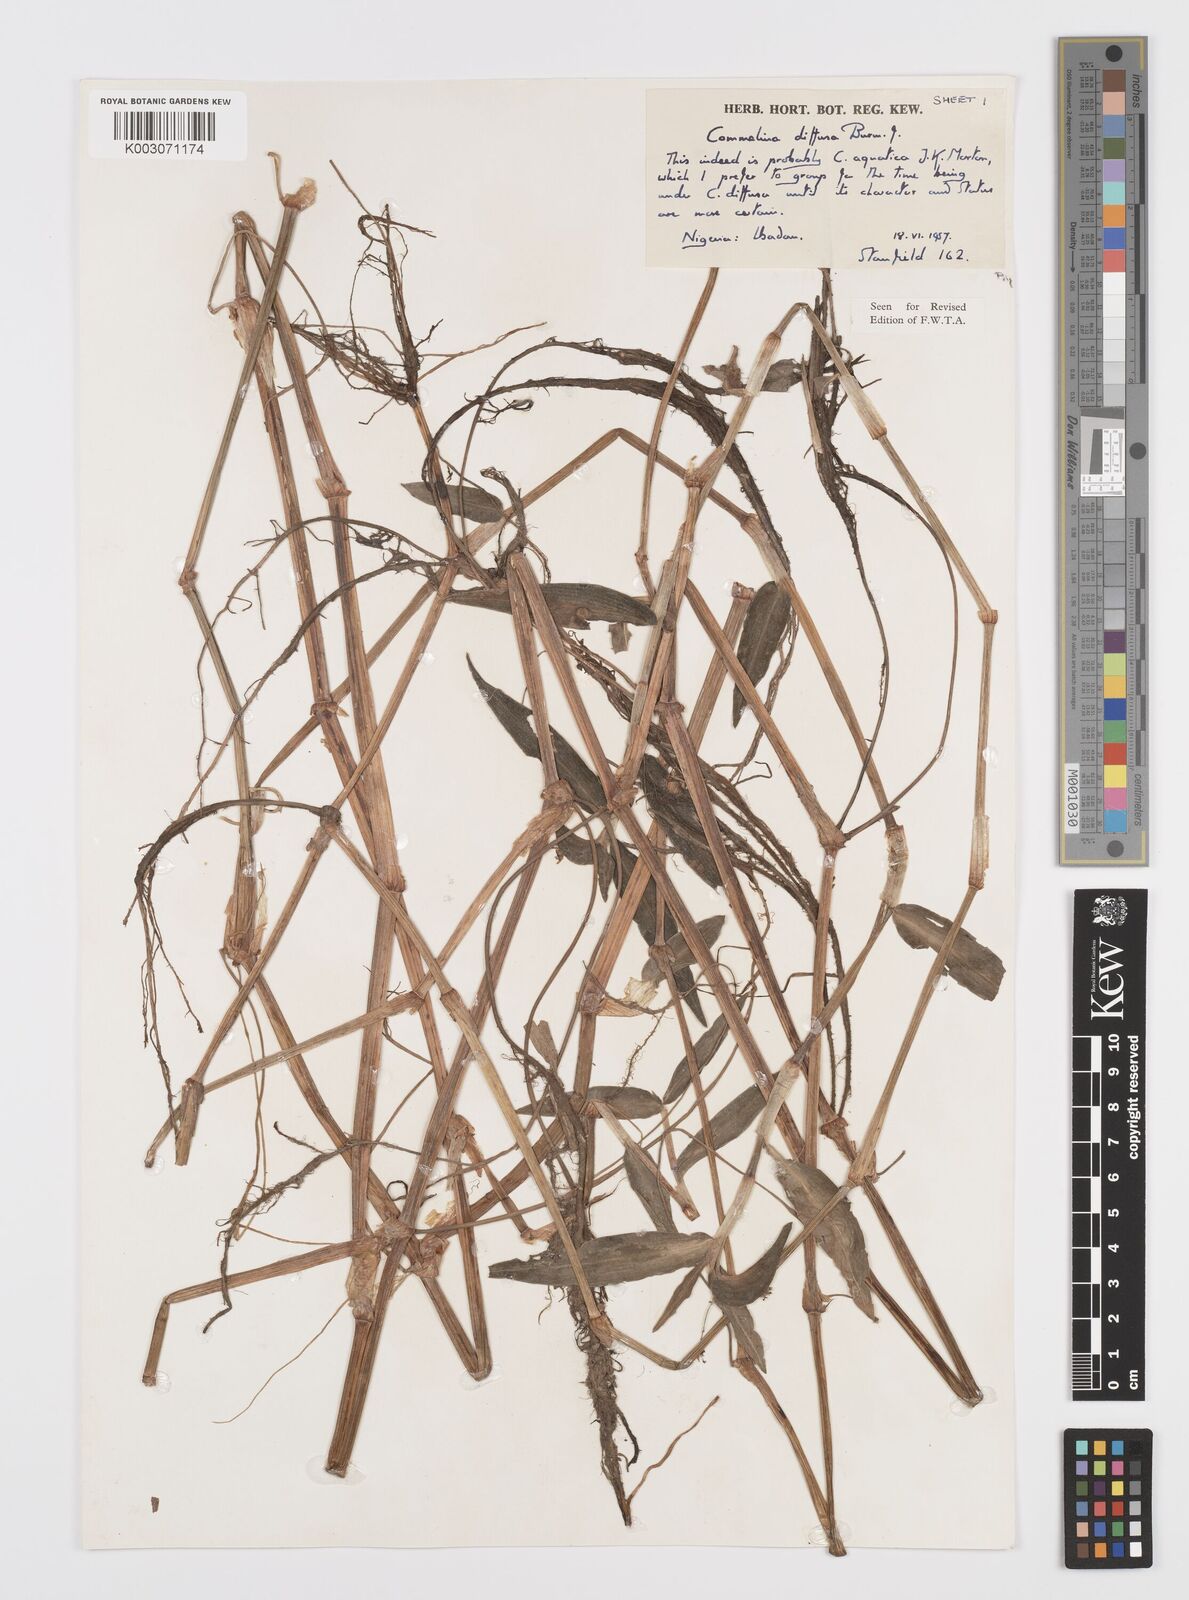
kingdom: Plantae
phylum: Tracheophyta
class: Liliopsida
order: Commelinales
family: Commelinaceae
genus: Commelina
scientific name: Commelina diffusa
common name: Climbing dayflower
